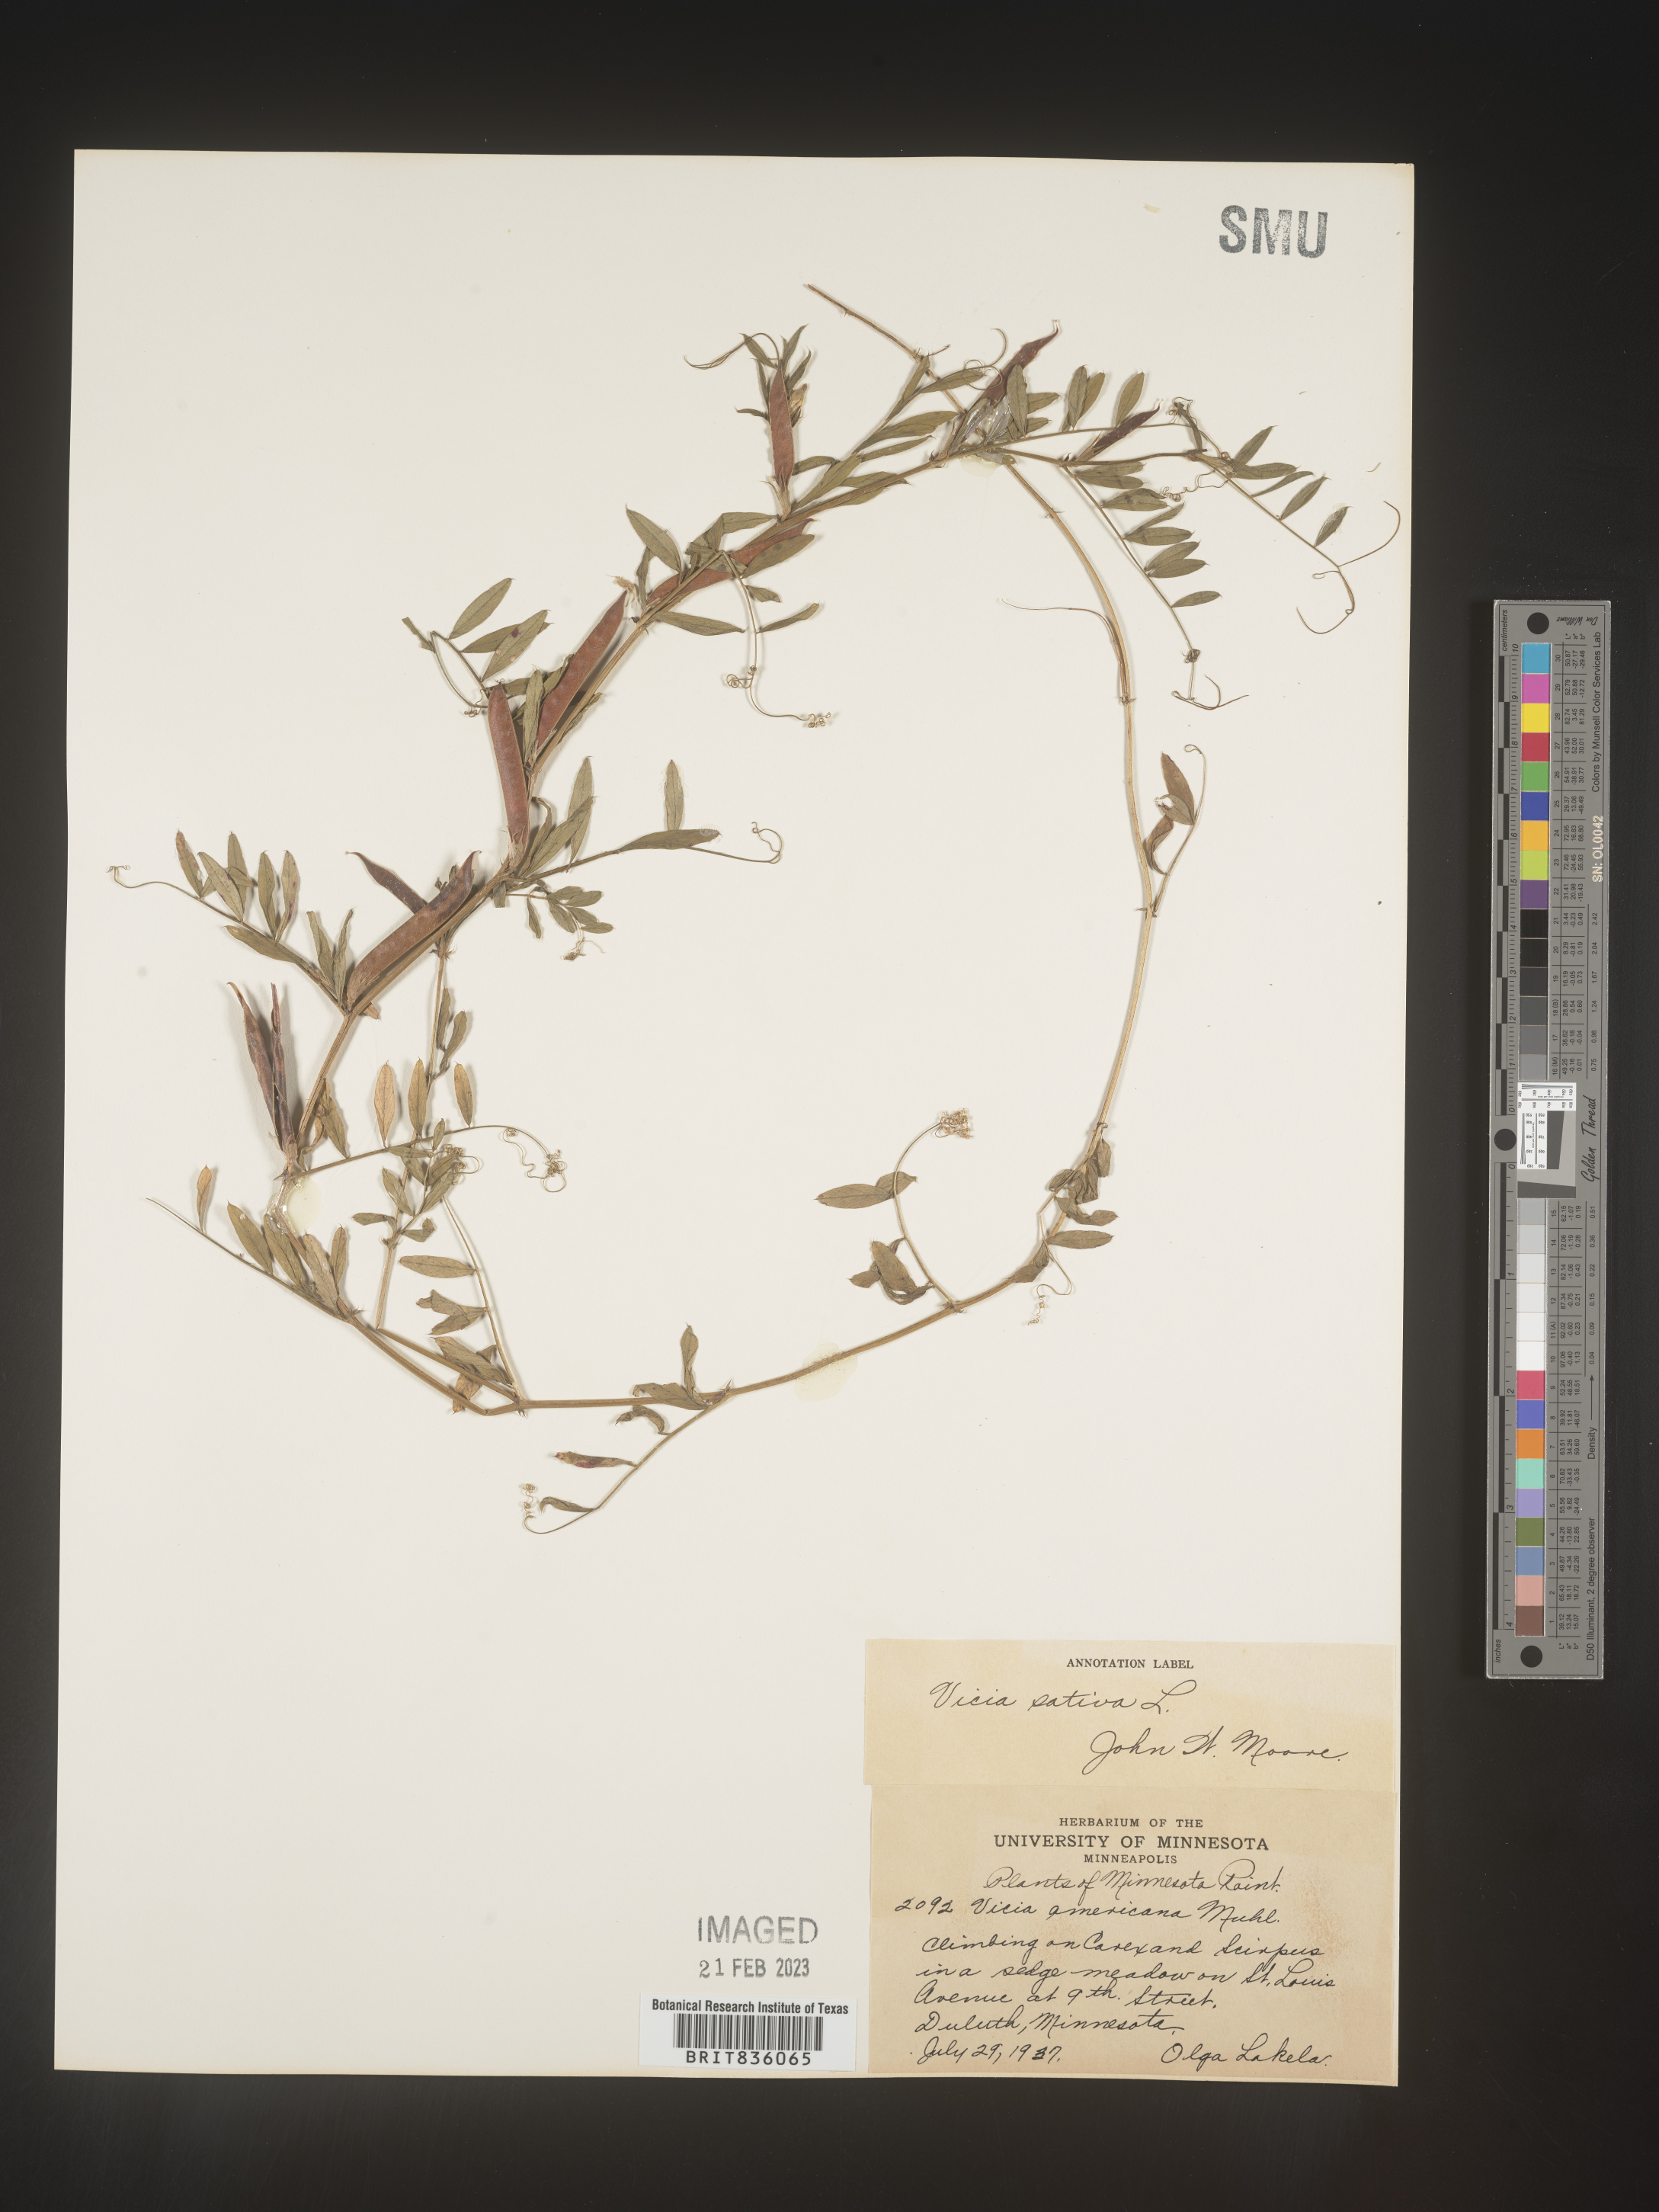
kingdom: Plantae
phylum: Tracheophyta
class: Magnoliopsida
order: Fabales
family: Fabaceae
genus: Vicia
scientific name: Vicia sativa
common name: Garden vetch
